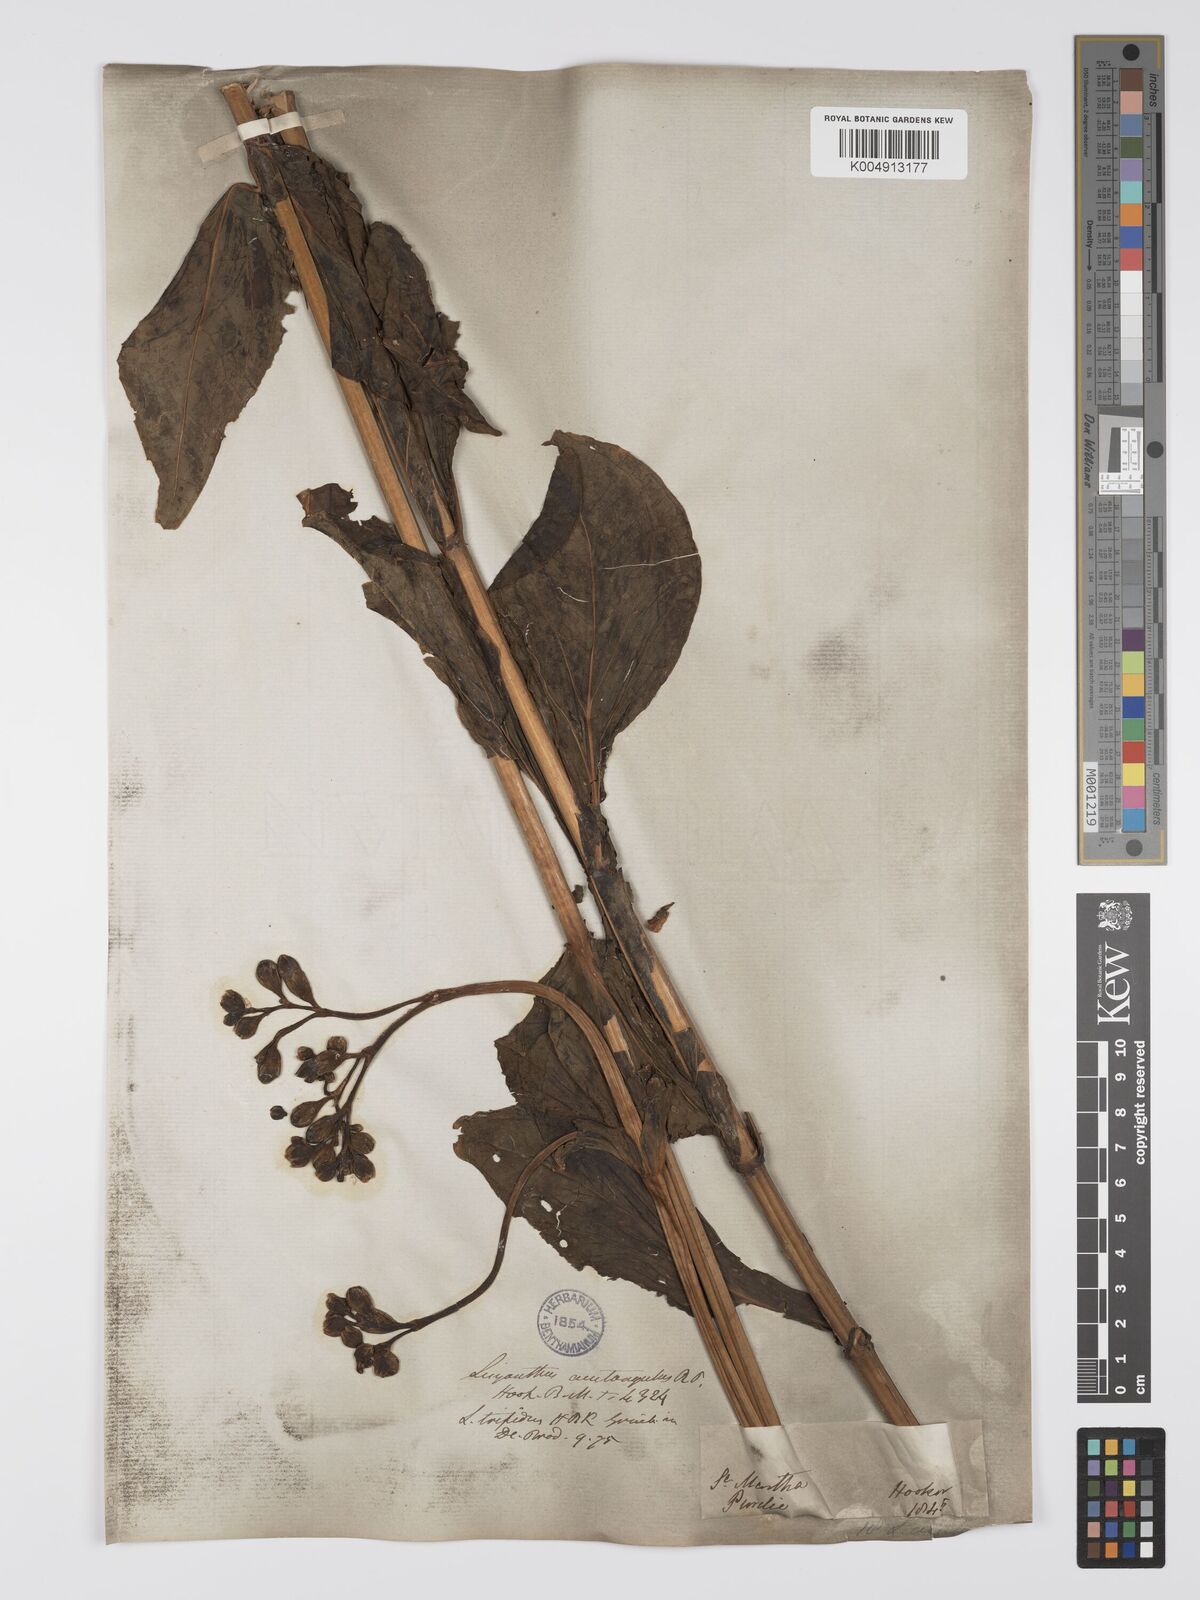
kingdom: Plantae
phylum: Tracheophyta
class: Magnoliopsida
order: Gentianales
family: Gentianaceae
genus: Chelonanthus
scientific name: Chelonanthus alatus
